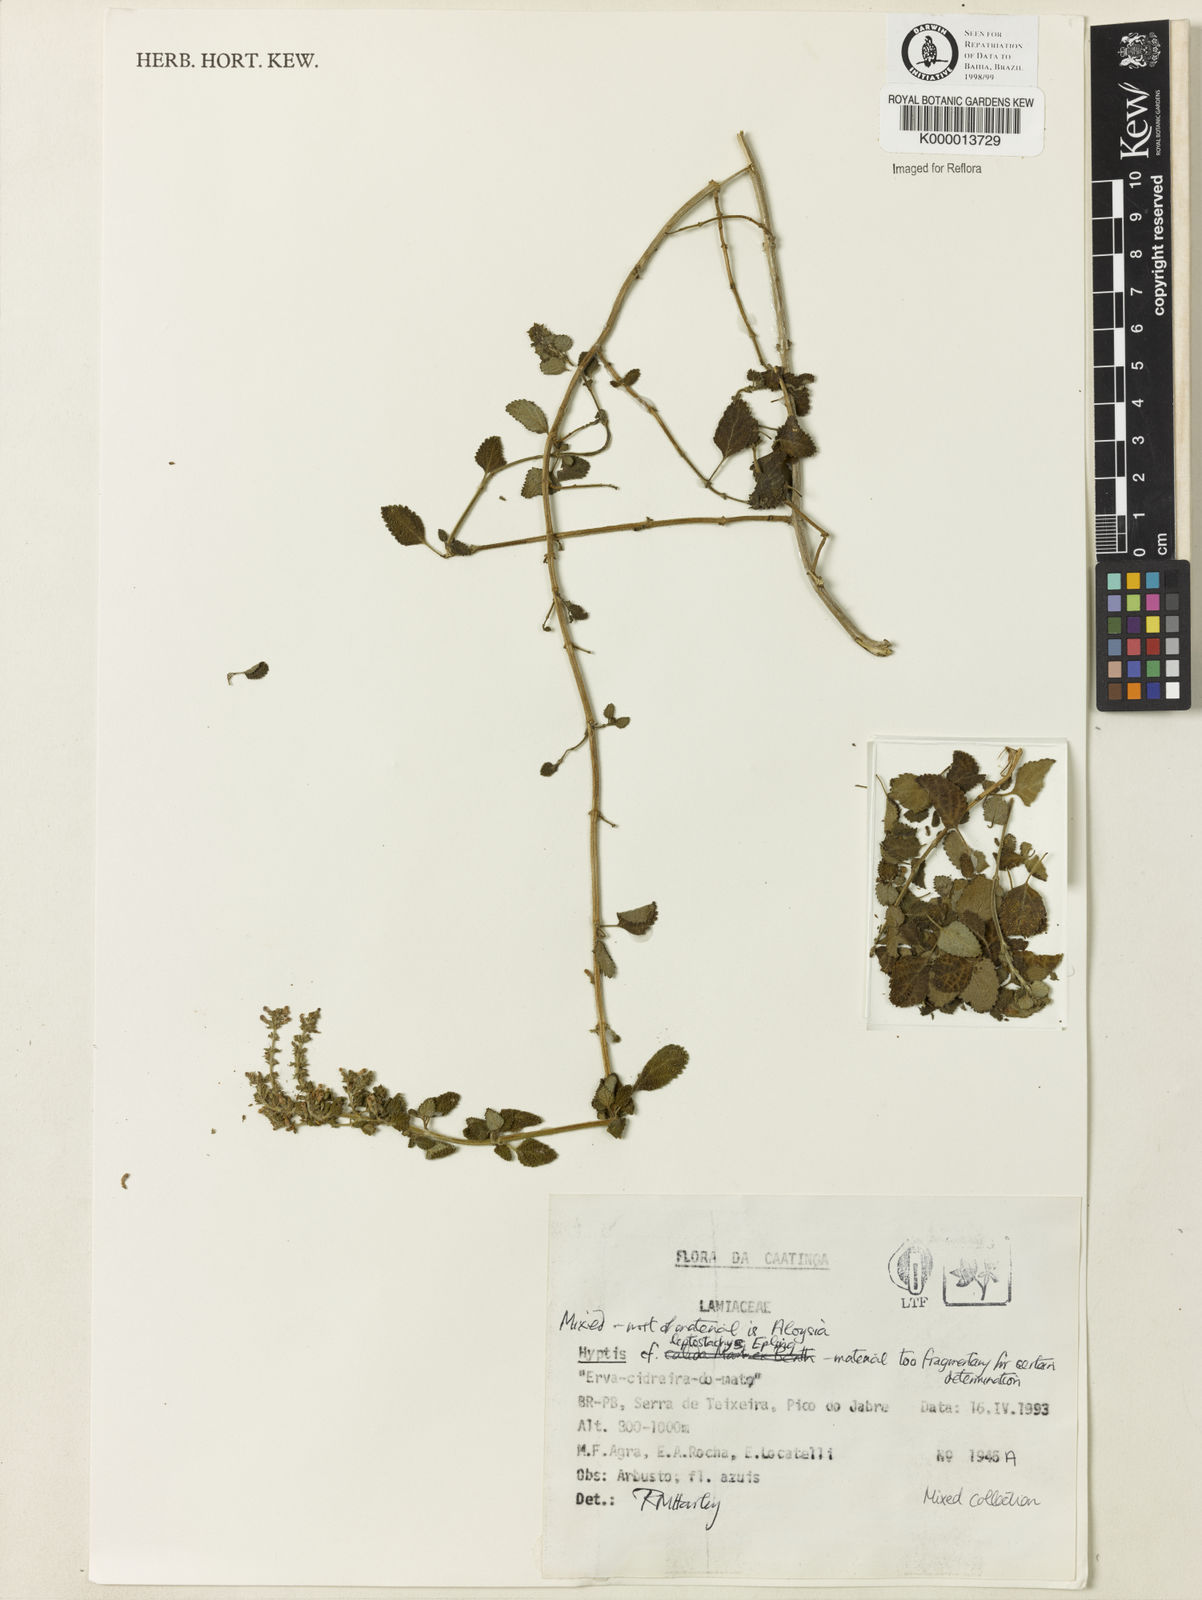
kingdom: Plantae
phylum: Tracheophyta
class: Magnoliopsida
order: Lamiales
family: Verbenaceae
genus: Aloysia
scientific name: Aloysia
